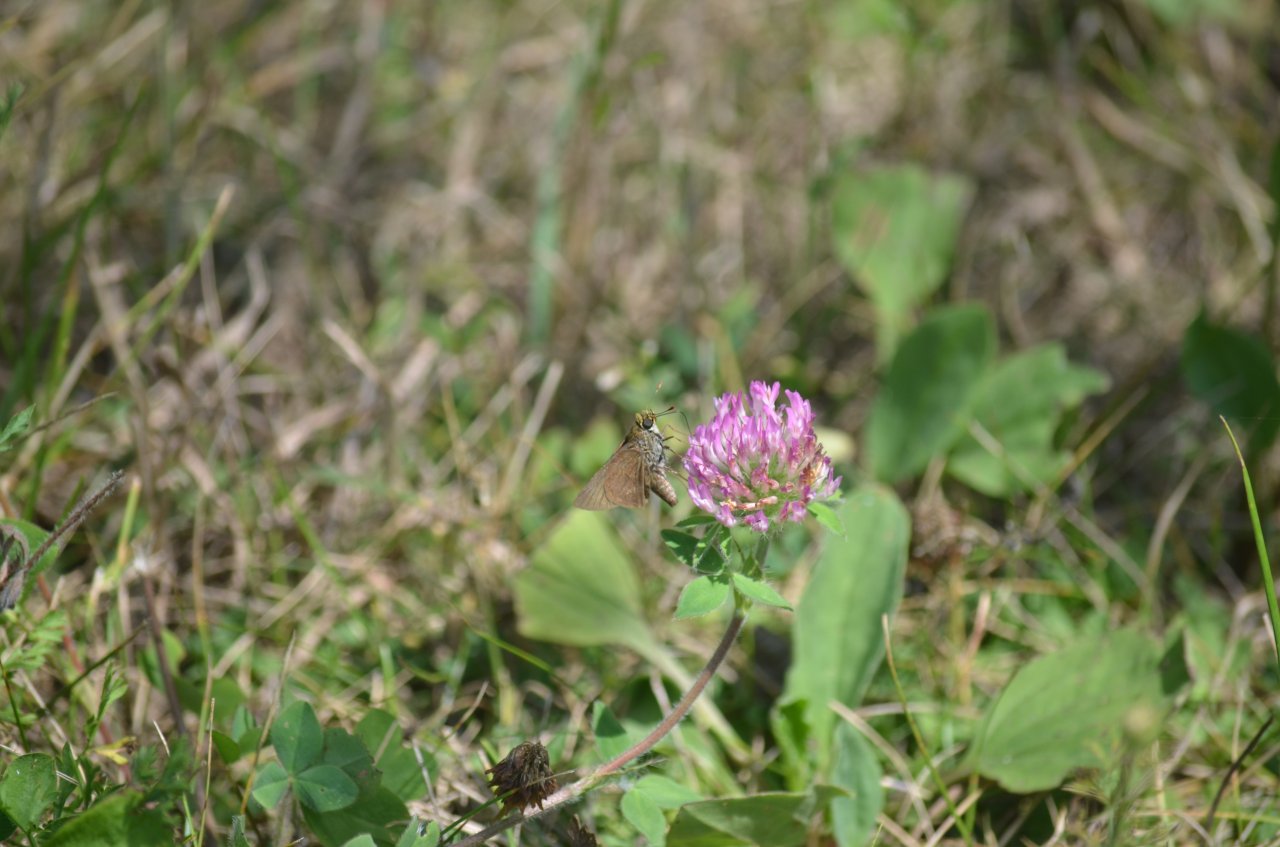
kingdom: Animalia
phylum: Arthropoda
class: Insecta
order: Lepidoptera
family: Hesperiidae
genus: Euphyes
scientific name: Euphyes vestris
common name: Dun Skipper
